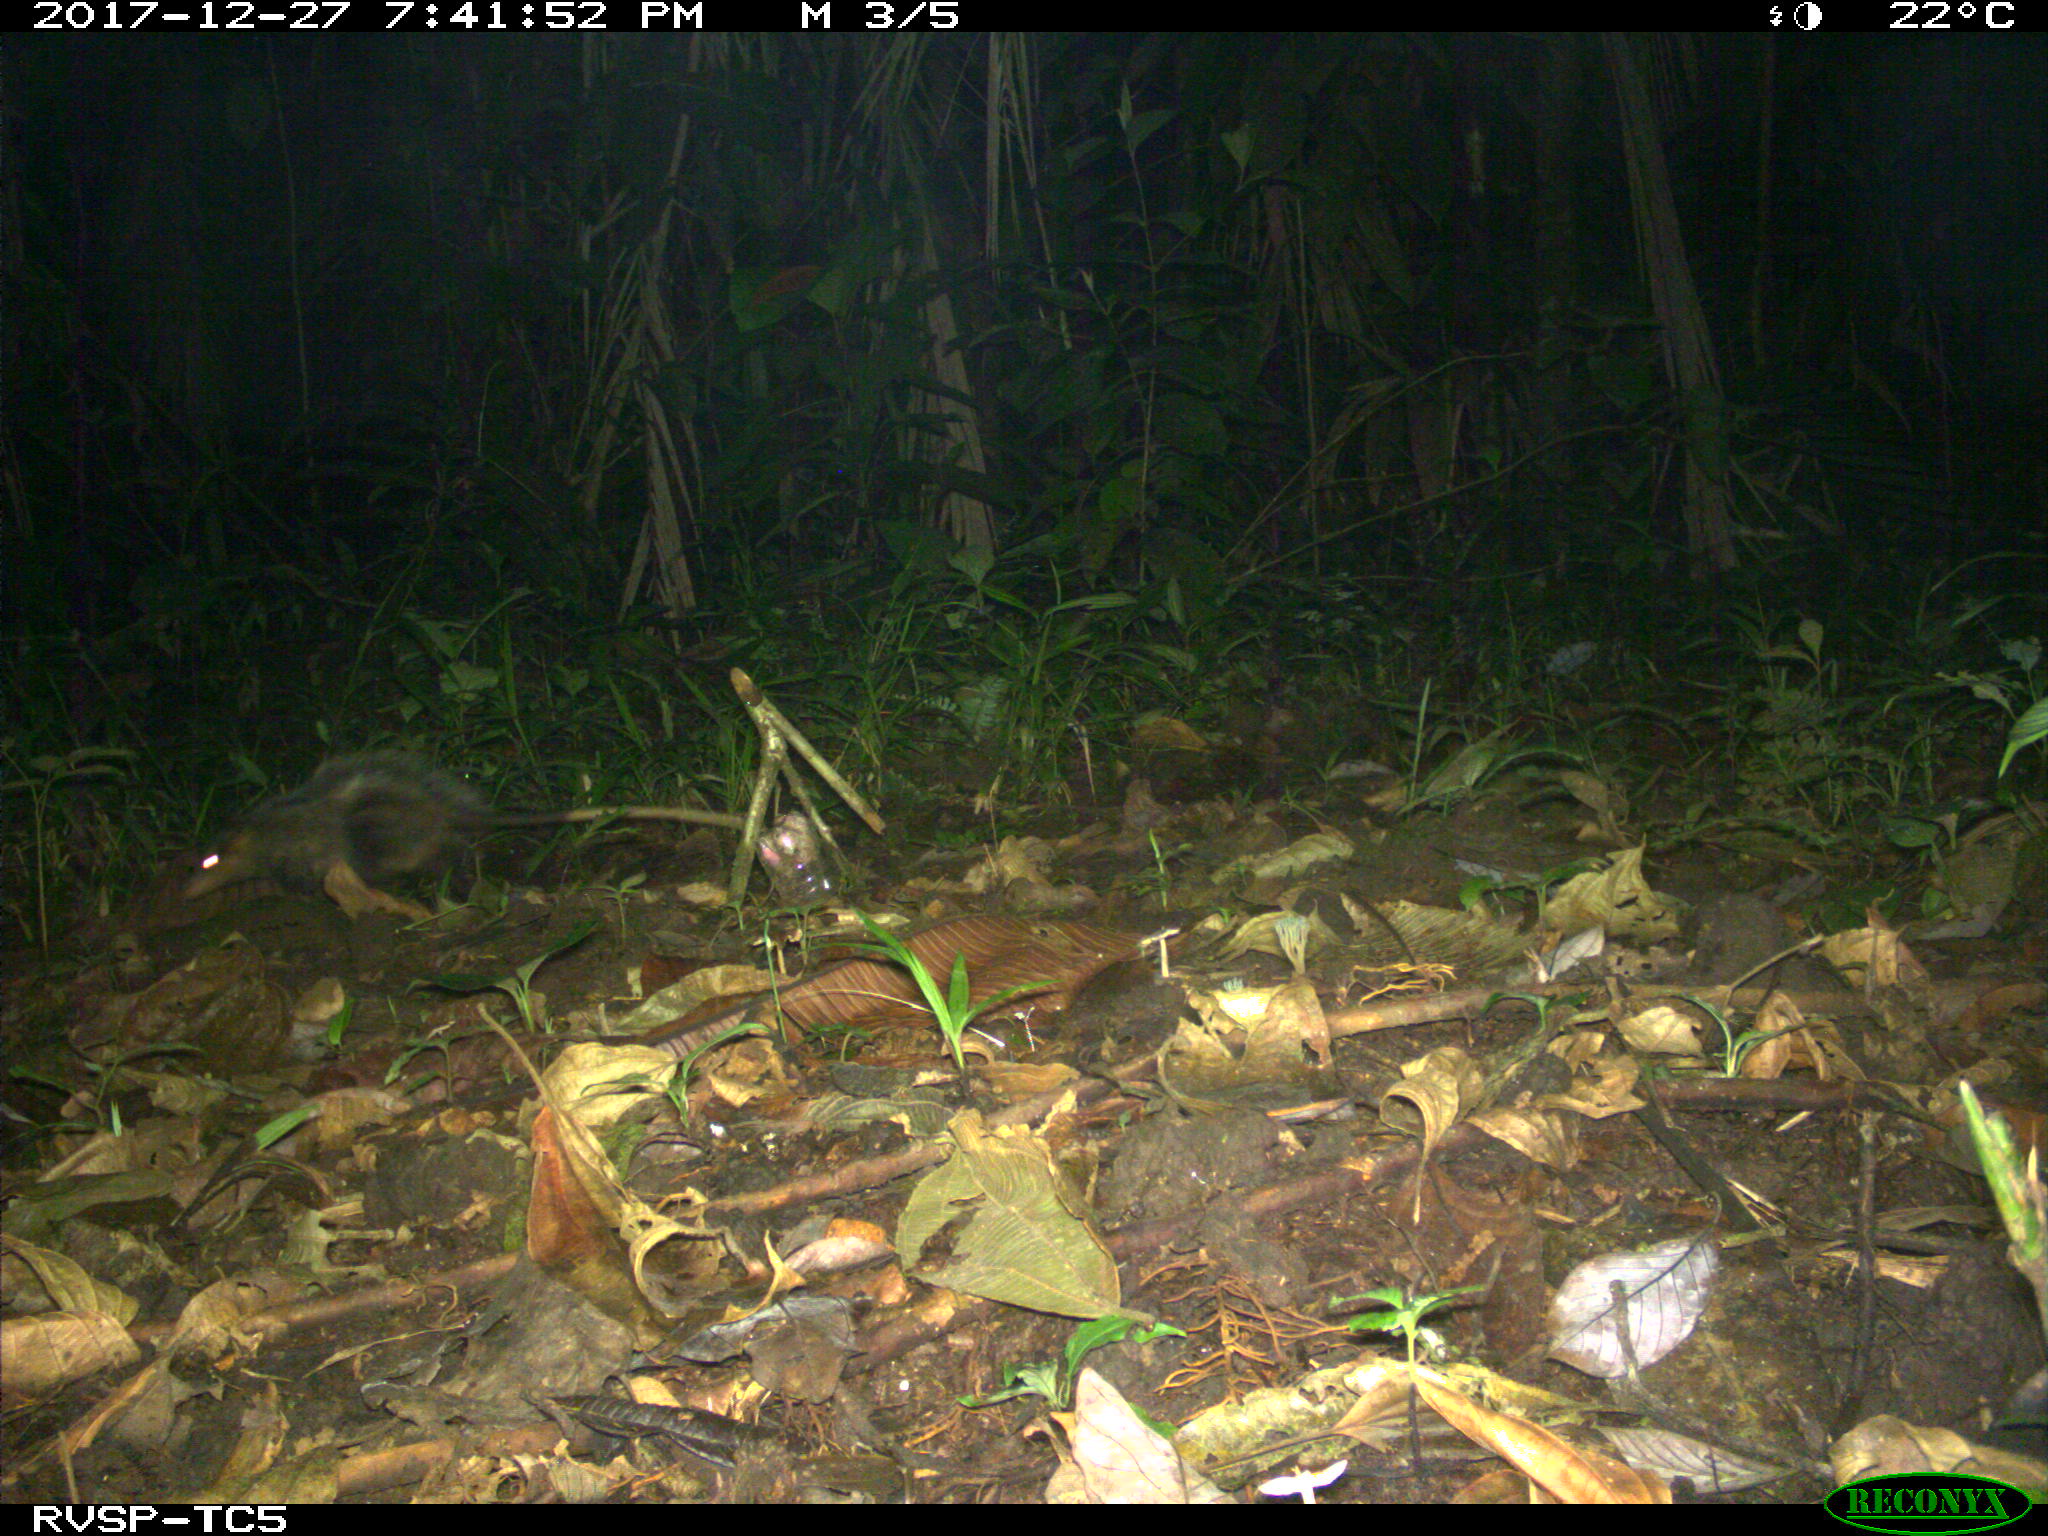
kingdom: Animalia
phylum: Chordata
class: Mammalia
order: Didelphimorphia
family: Didelphidae
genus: Didelphis
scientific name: Didelphis marsupialis
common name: Common opossum
